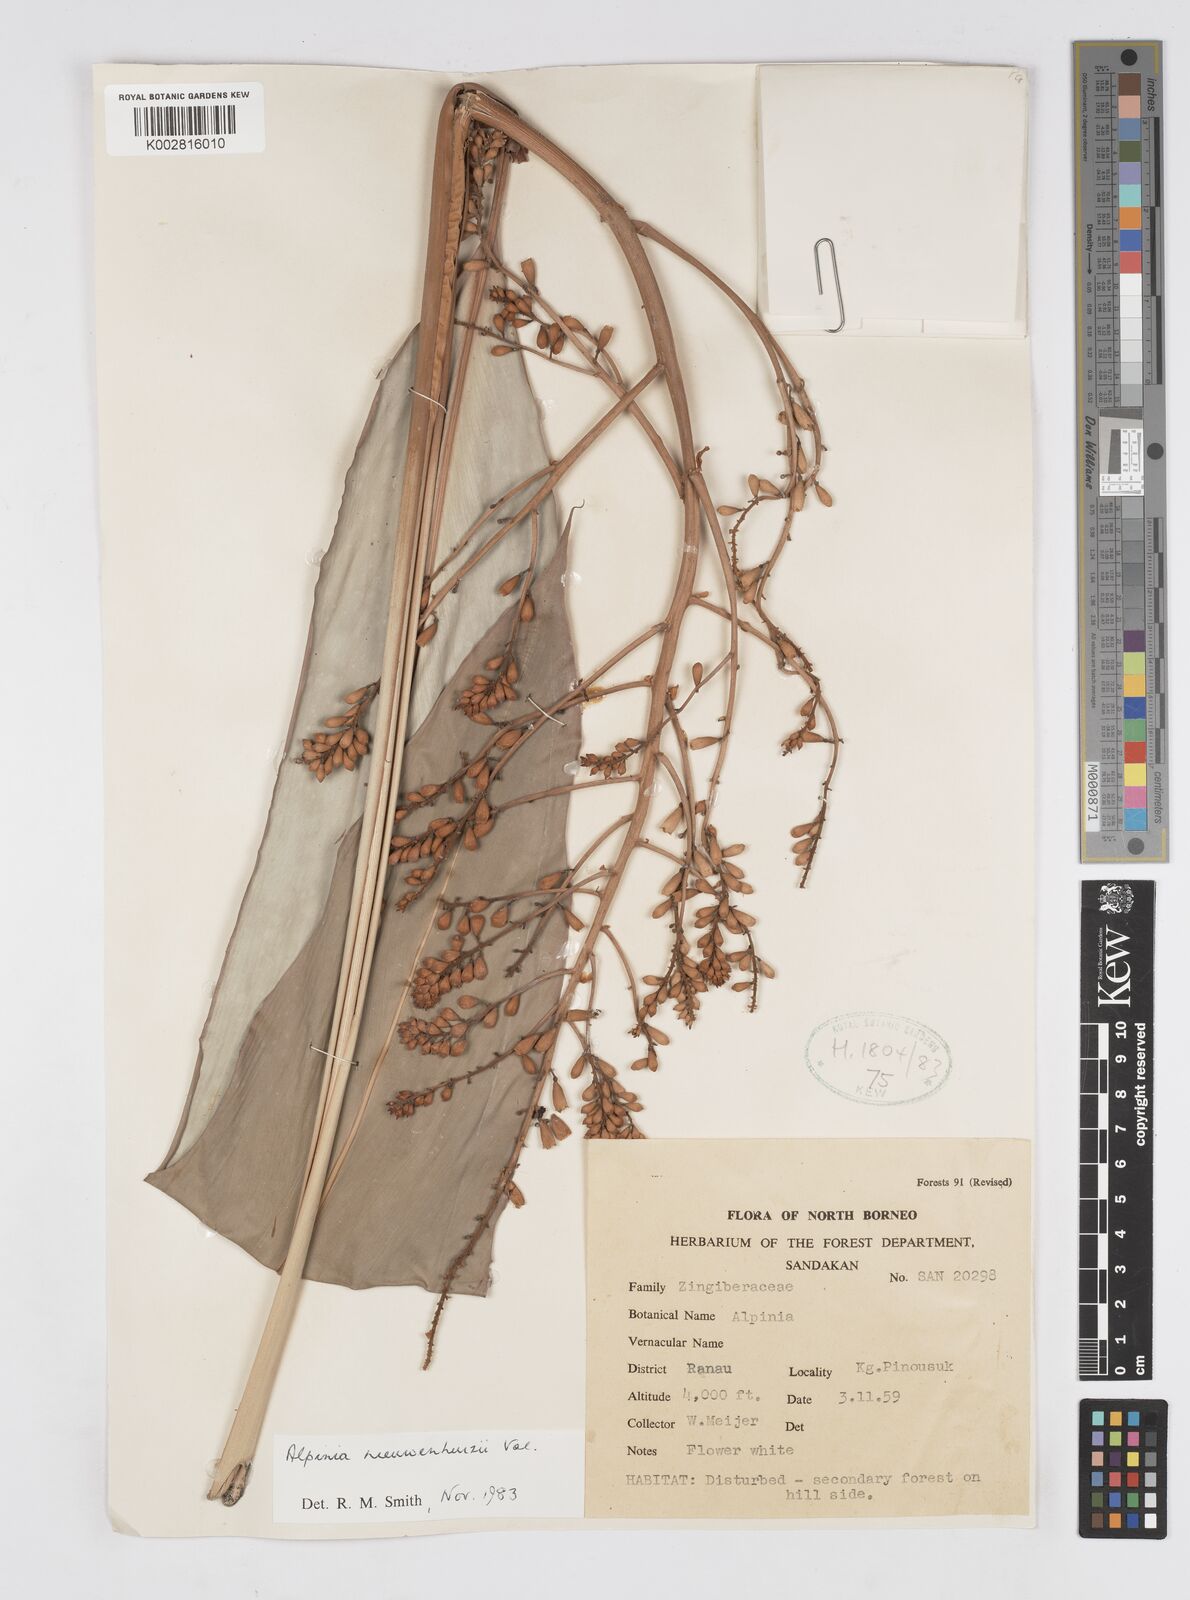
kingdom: Plantae
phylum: Tracheophyta
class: Liliopsida
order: Zingiberales
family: Zingiberaceae
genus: Alpinia
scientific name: Alpinia nieuwenhuizii
